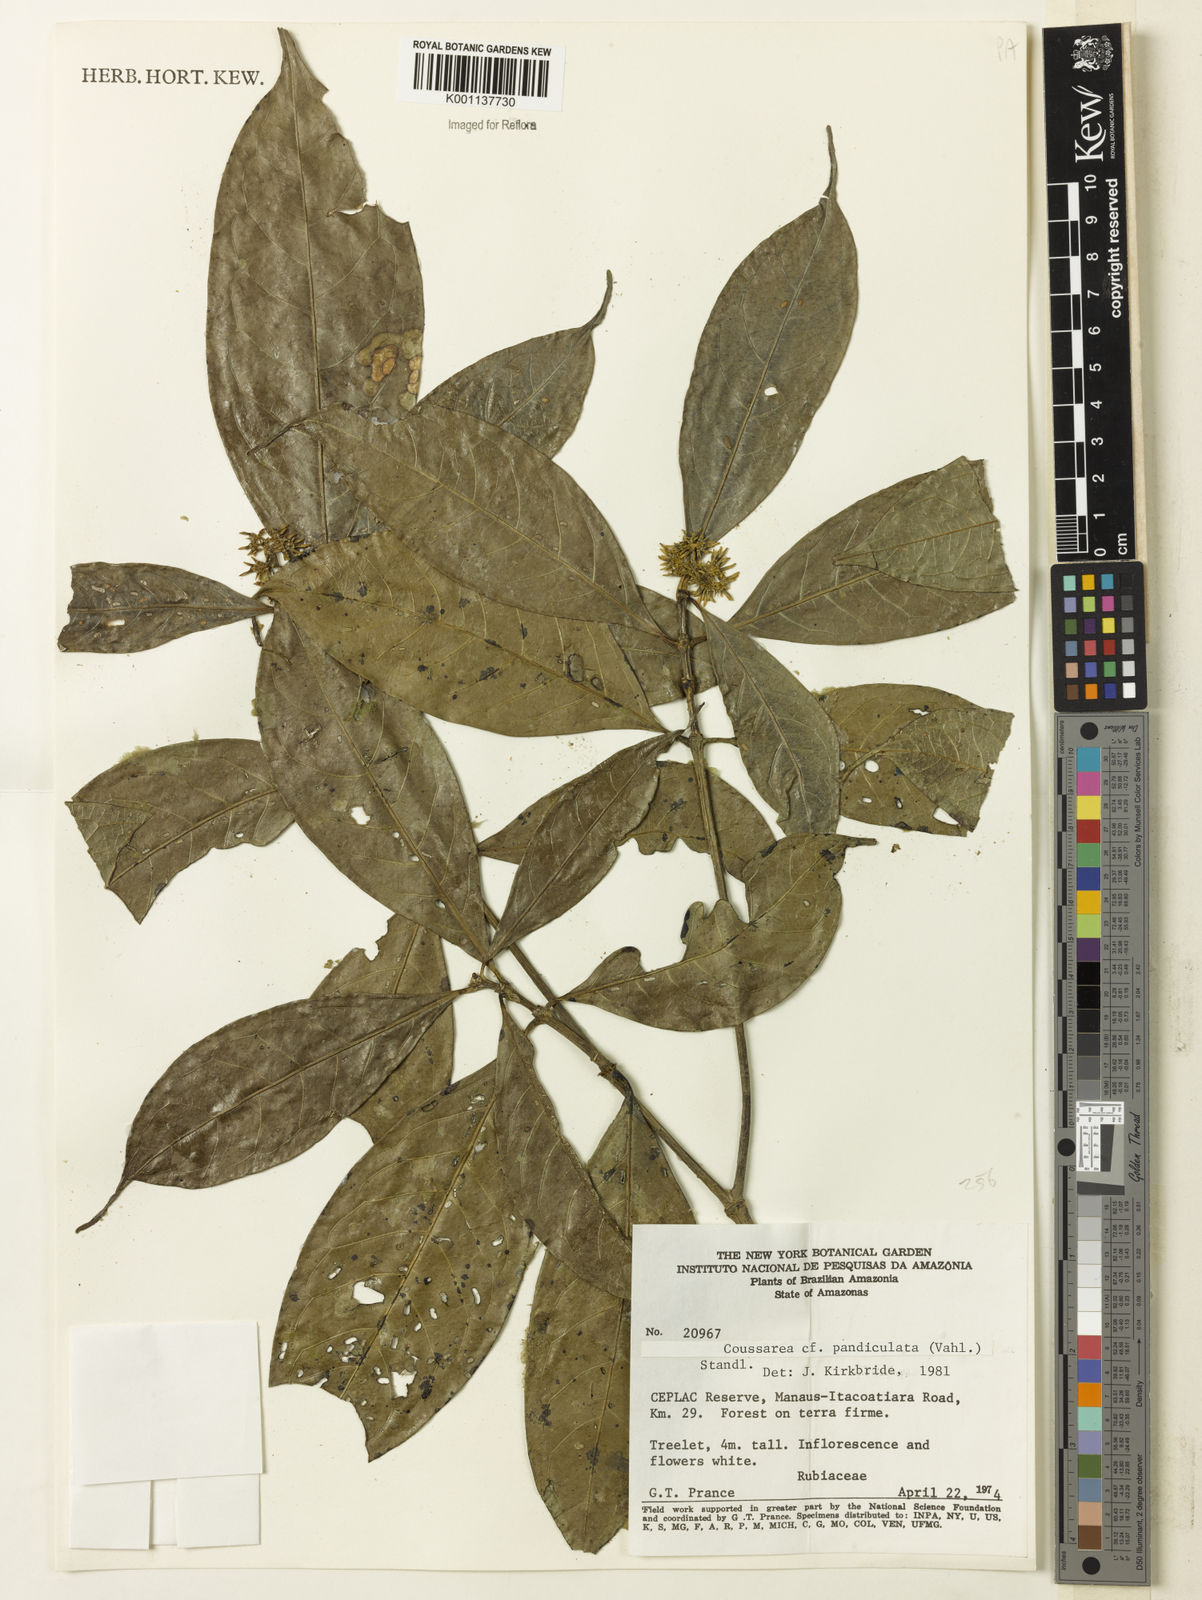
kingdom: Plantae
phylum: Tracheophyta
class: Magnoliopsida
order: Gentianales
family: Rubiaceae
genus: Coussarea
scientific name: Coussarea paniculata
